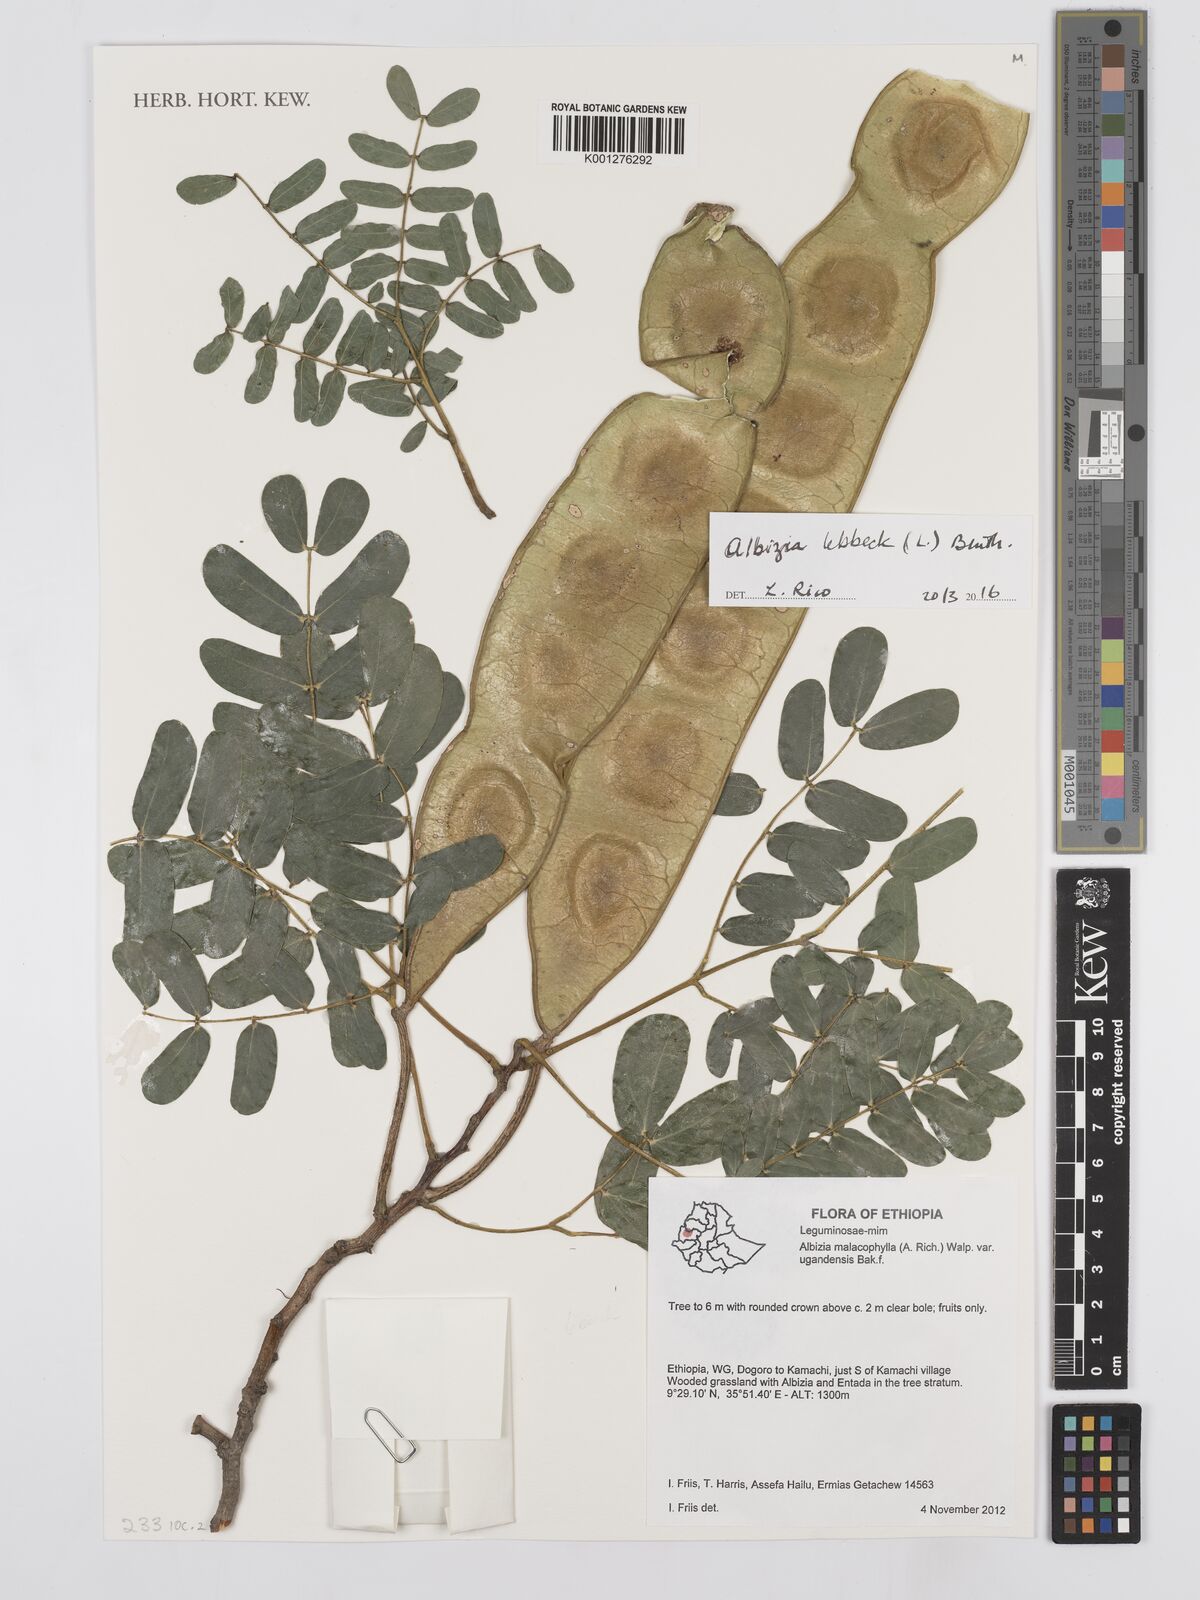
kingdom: Plantae
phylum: Tracheophyta
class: Magnoliopsida
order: Fabales
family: Fabaceae
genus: Albizia
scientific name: Albizia lebbeck
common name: Woman's tongue
